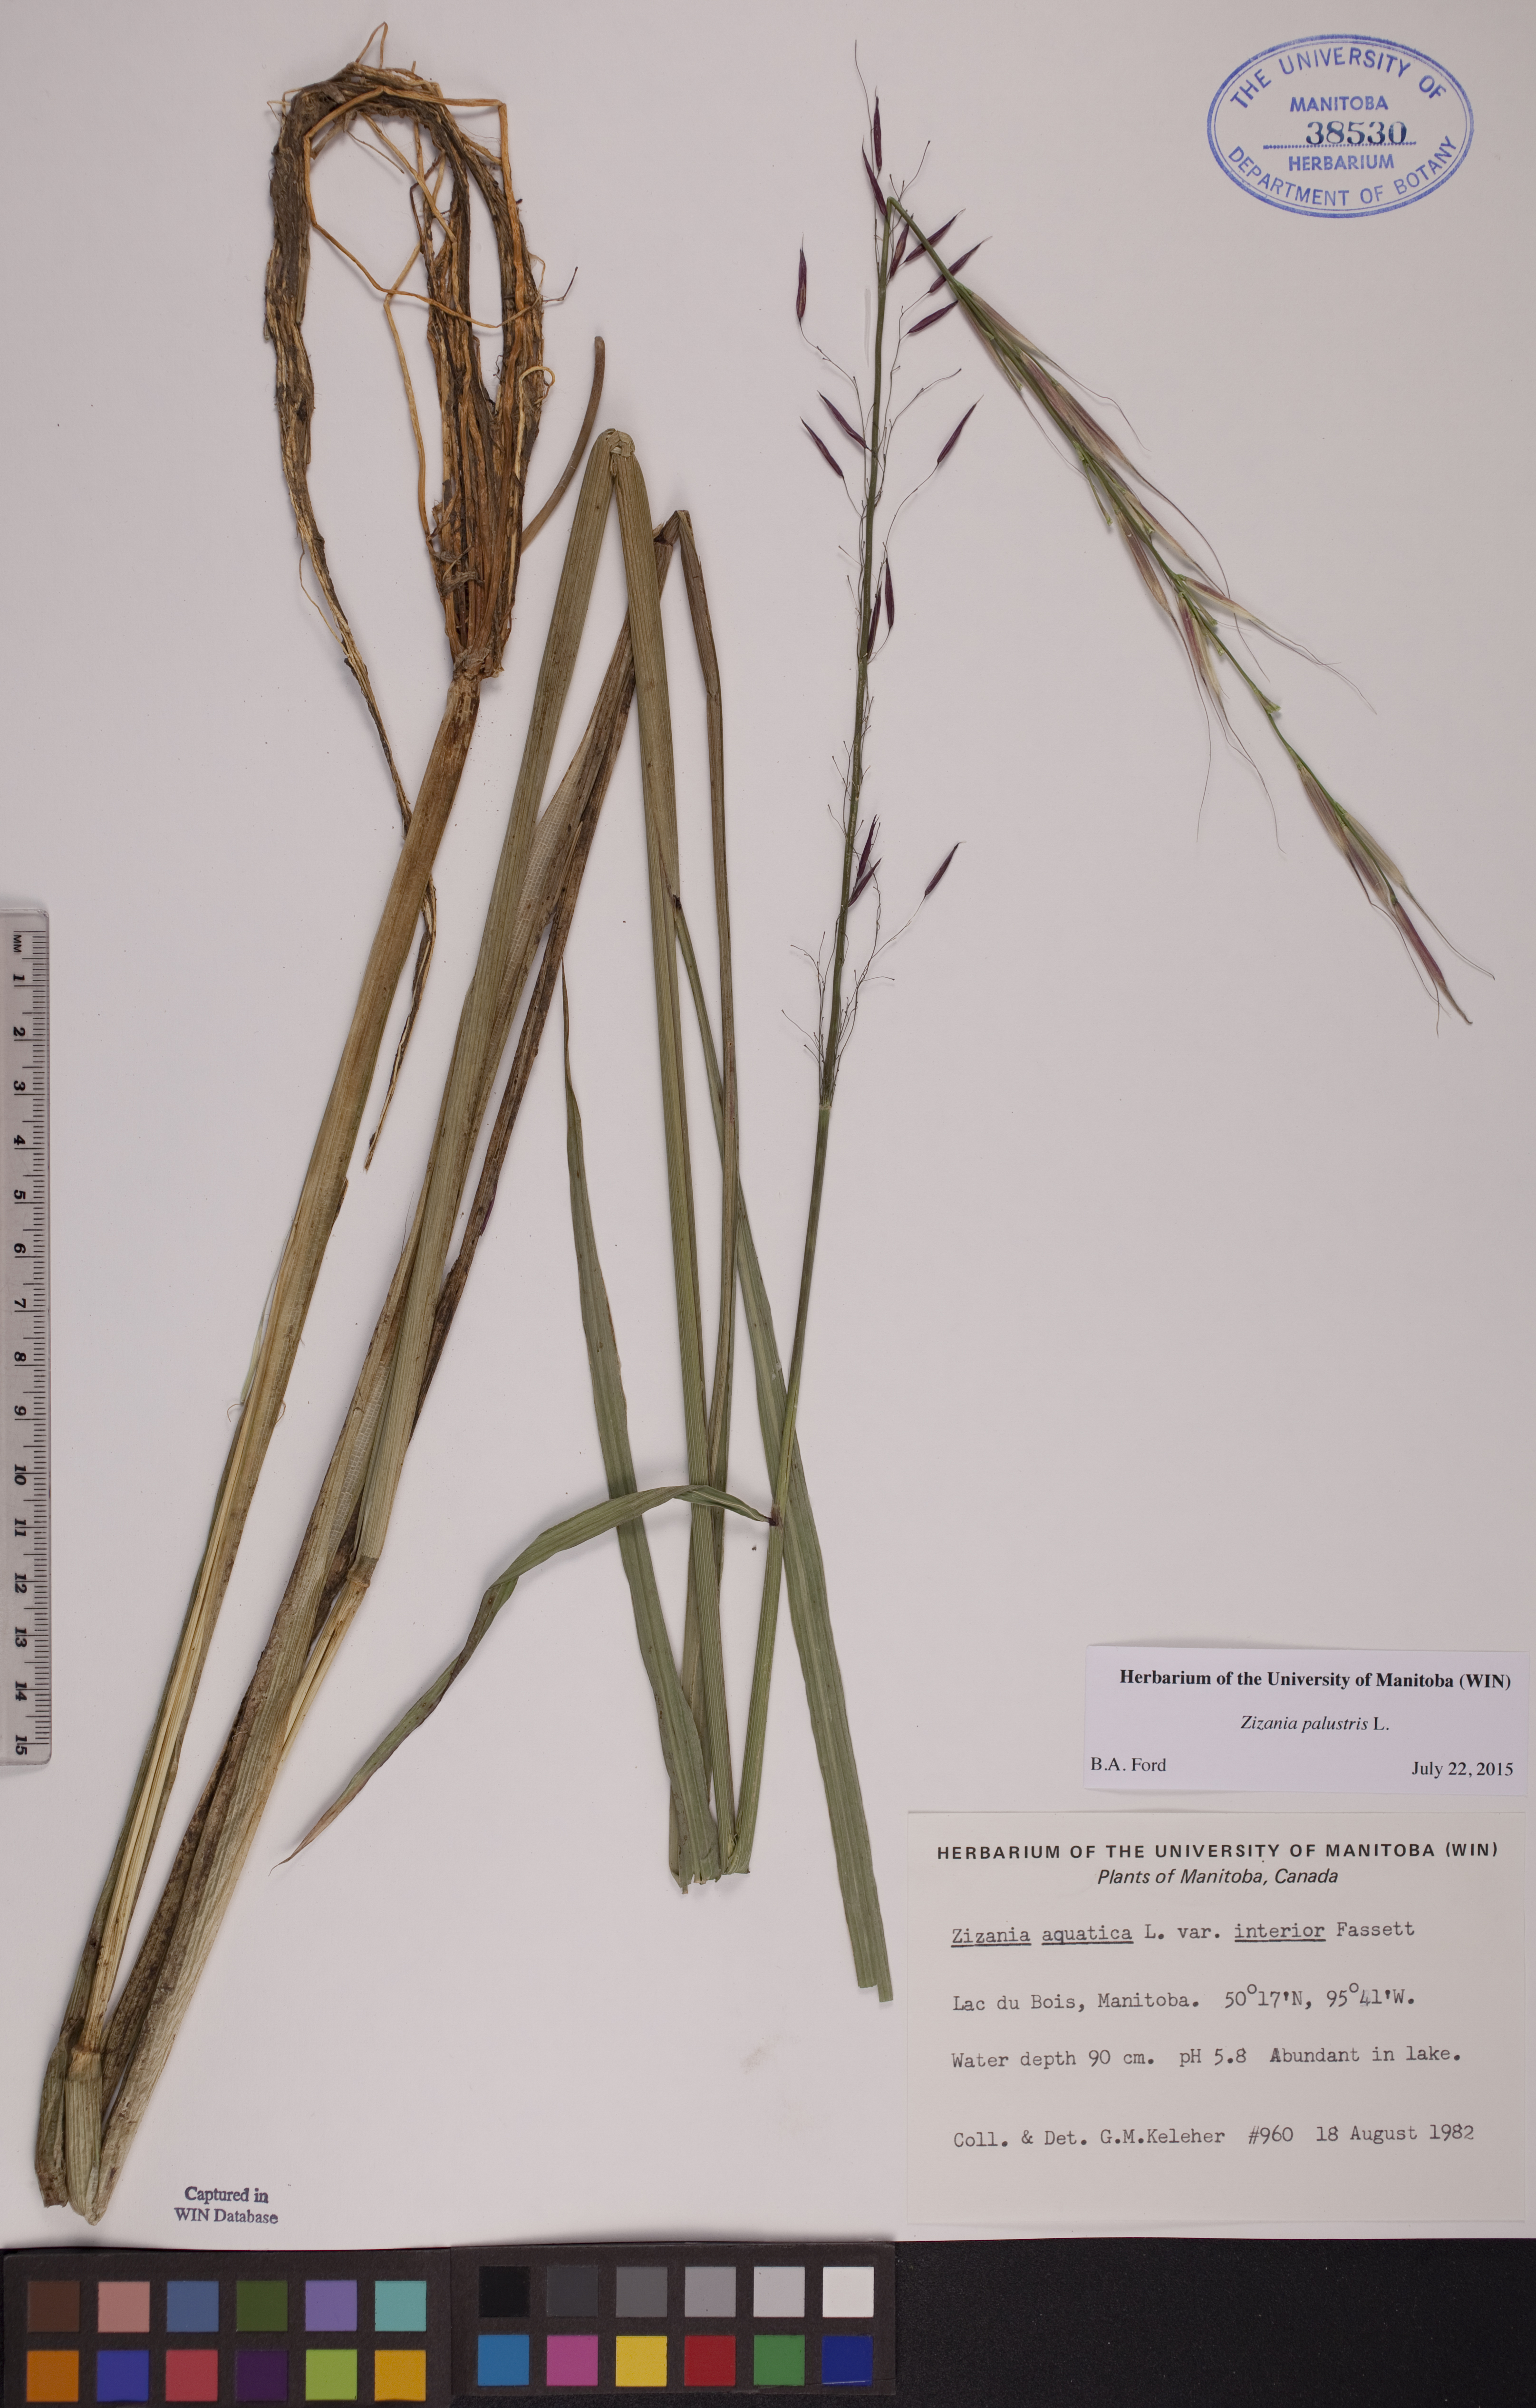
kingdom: Plantae
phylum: Tracheophyta
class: Liliopsida
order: Poales
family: Poaceae
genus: Zizania
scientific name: Zizania palustris
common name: Northern wild rice
